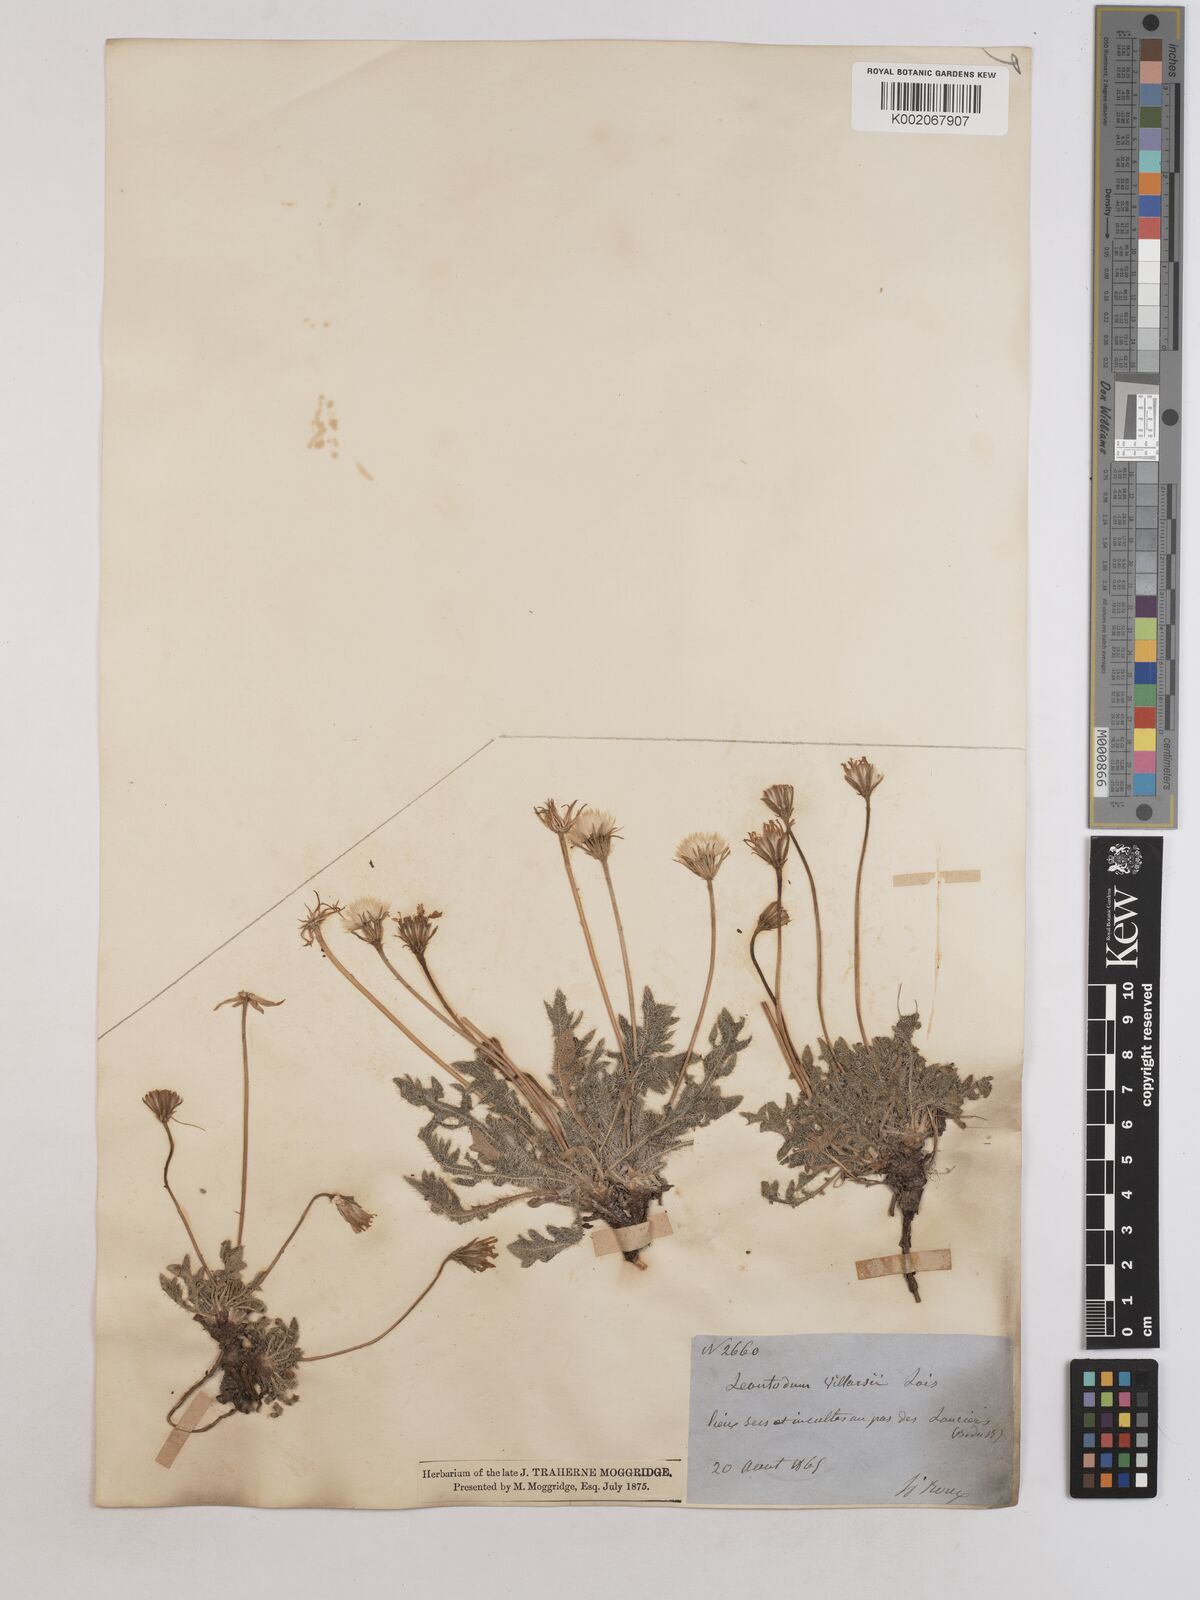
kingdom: Plantae
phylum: Tracheophyta
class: Magnoliopsida
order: Asterales
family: Asteraceae
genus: Leontodon
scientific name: Leontodon hirtus
